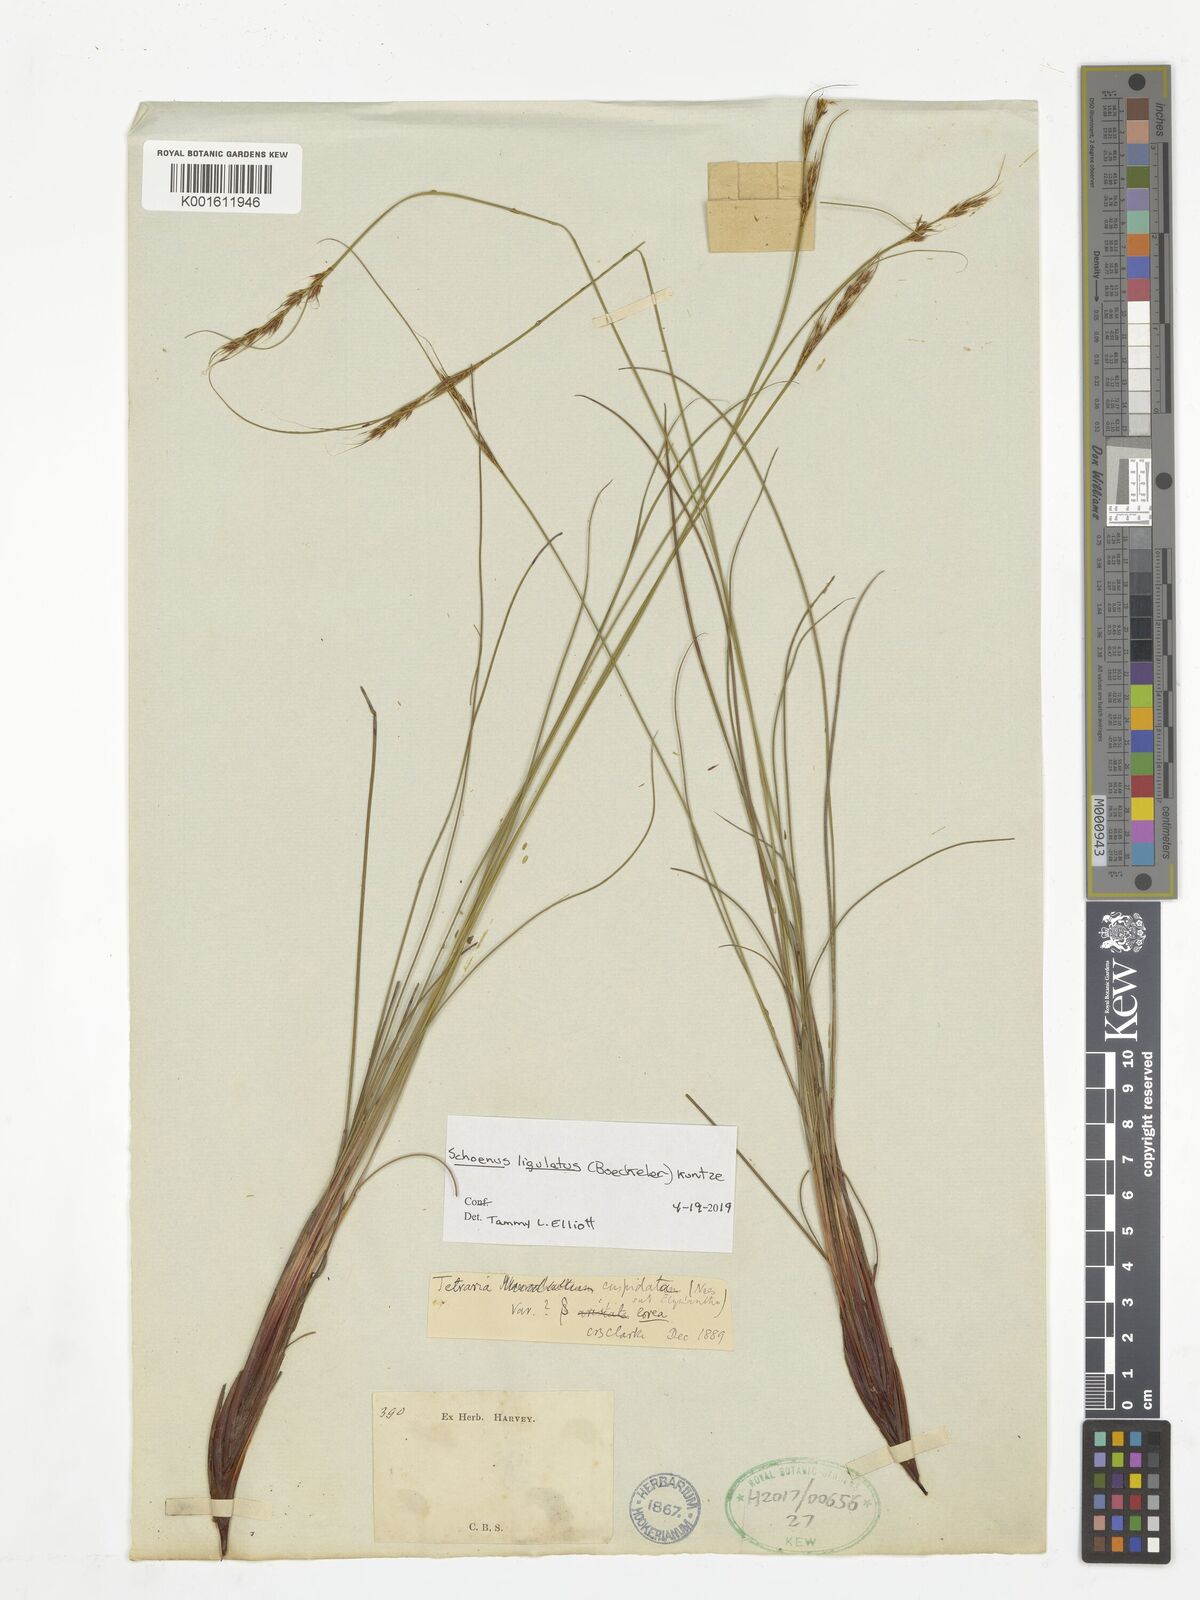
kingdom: Plantae
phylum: Tracheophyta
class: Liliopsida
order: Poales
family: Cyperaceae
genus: Schoenus
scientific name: Schoenus ligulatus
